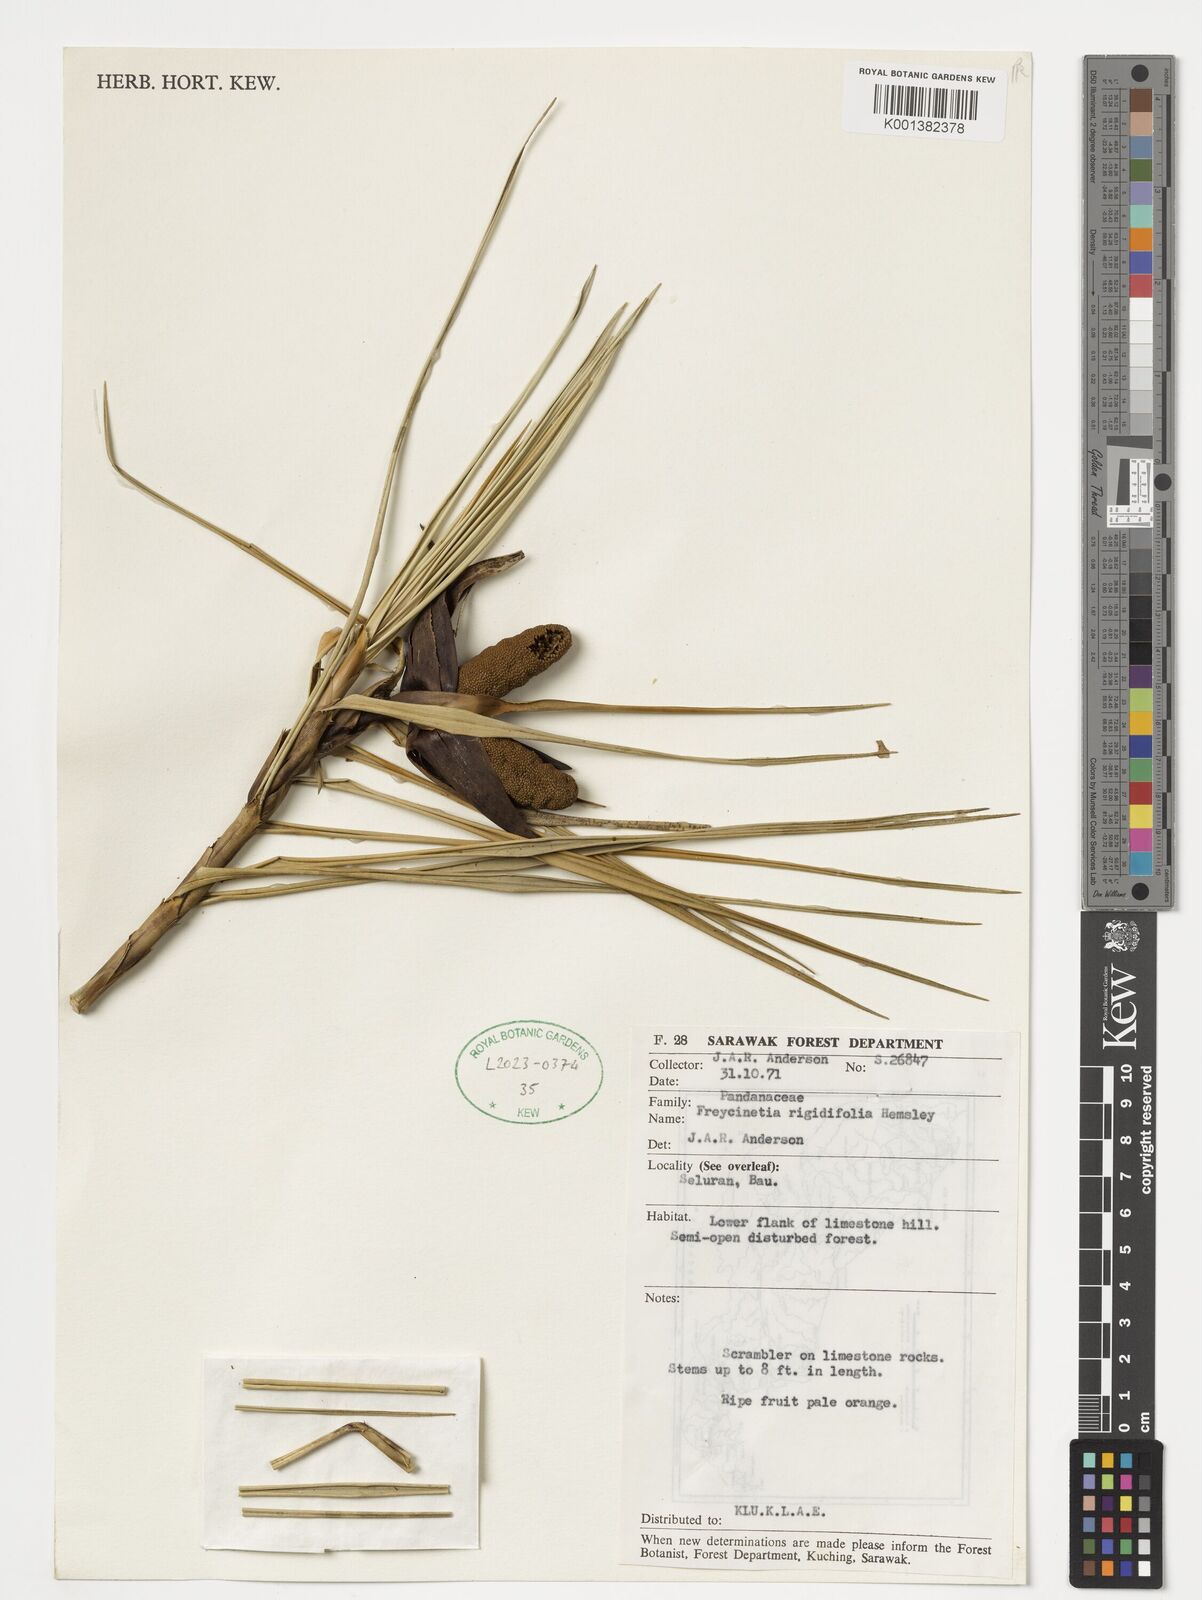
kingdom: Plantae
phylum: Tracheophyta
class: Liliopsida
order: Pandanales
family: Pandanaceae
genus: Freycinetia
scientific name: Freycinetia rigidifolia
